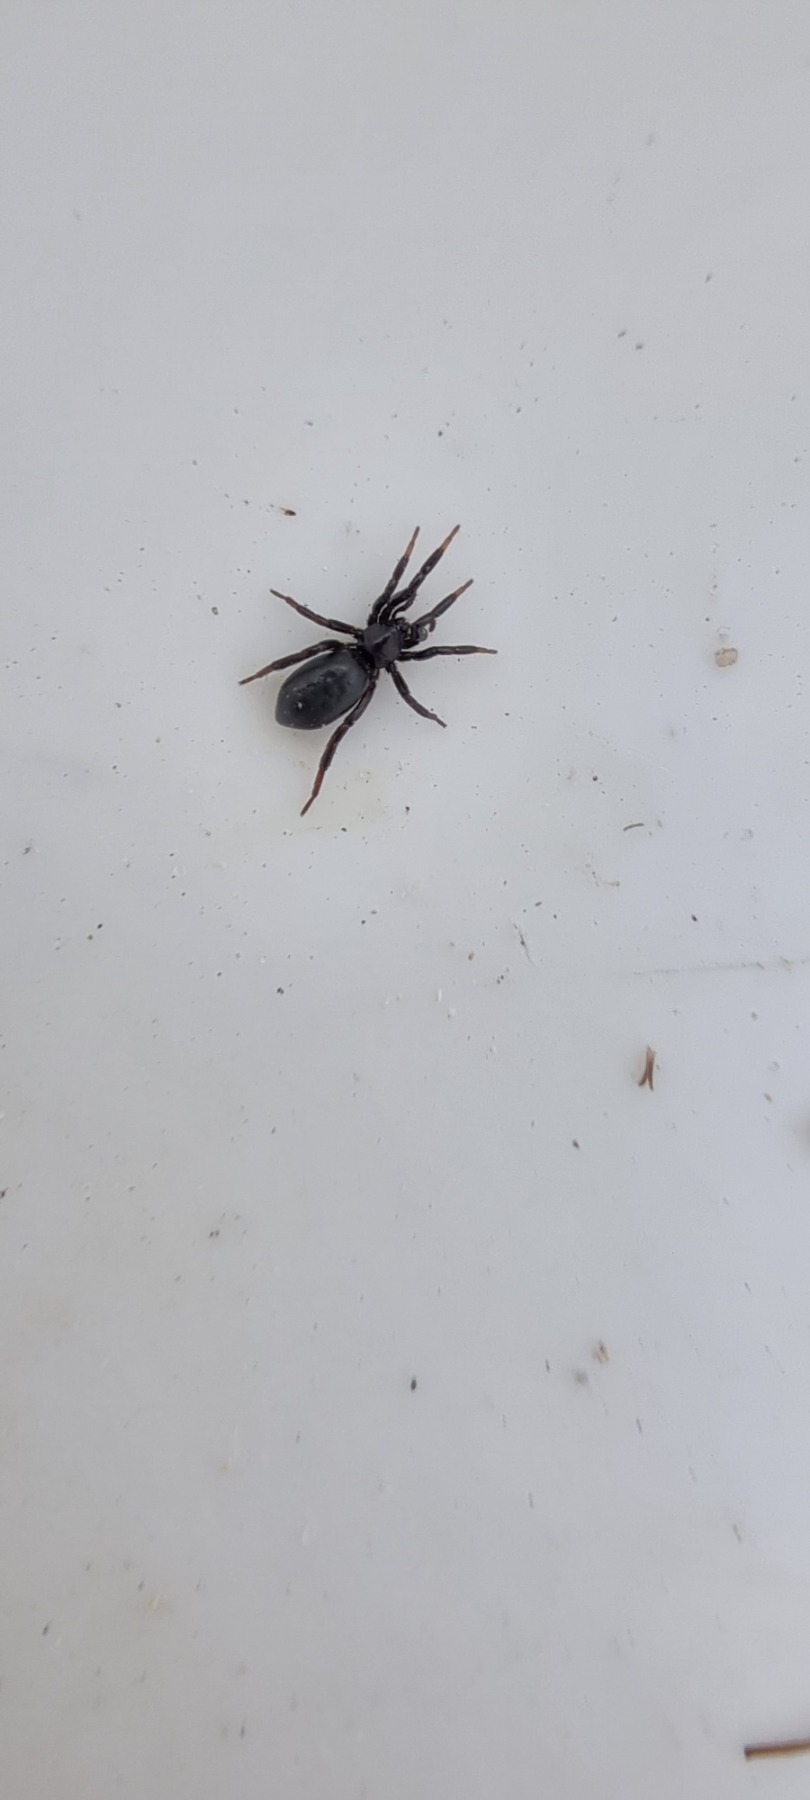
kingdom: Animalia
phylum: Arthropoda
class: Arachnida
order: Araneae
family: Gnaphosidae
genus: Drassyllus
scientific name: Drassyllus
